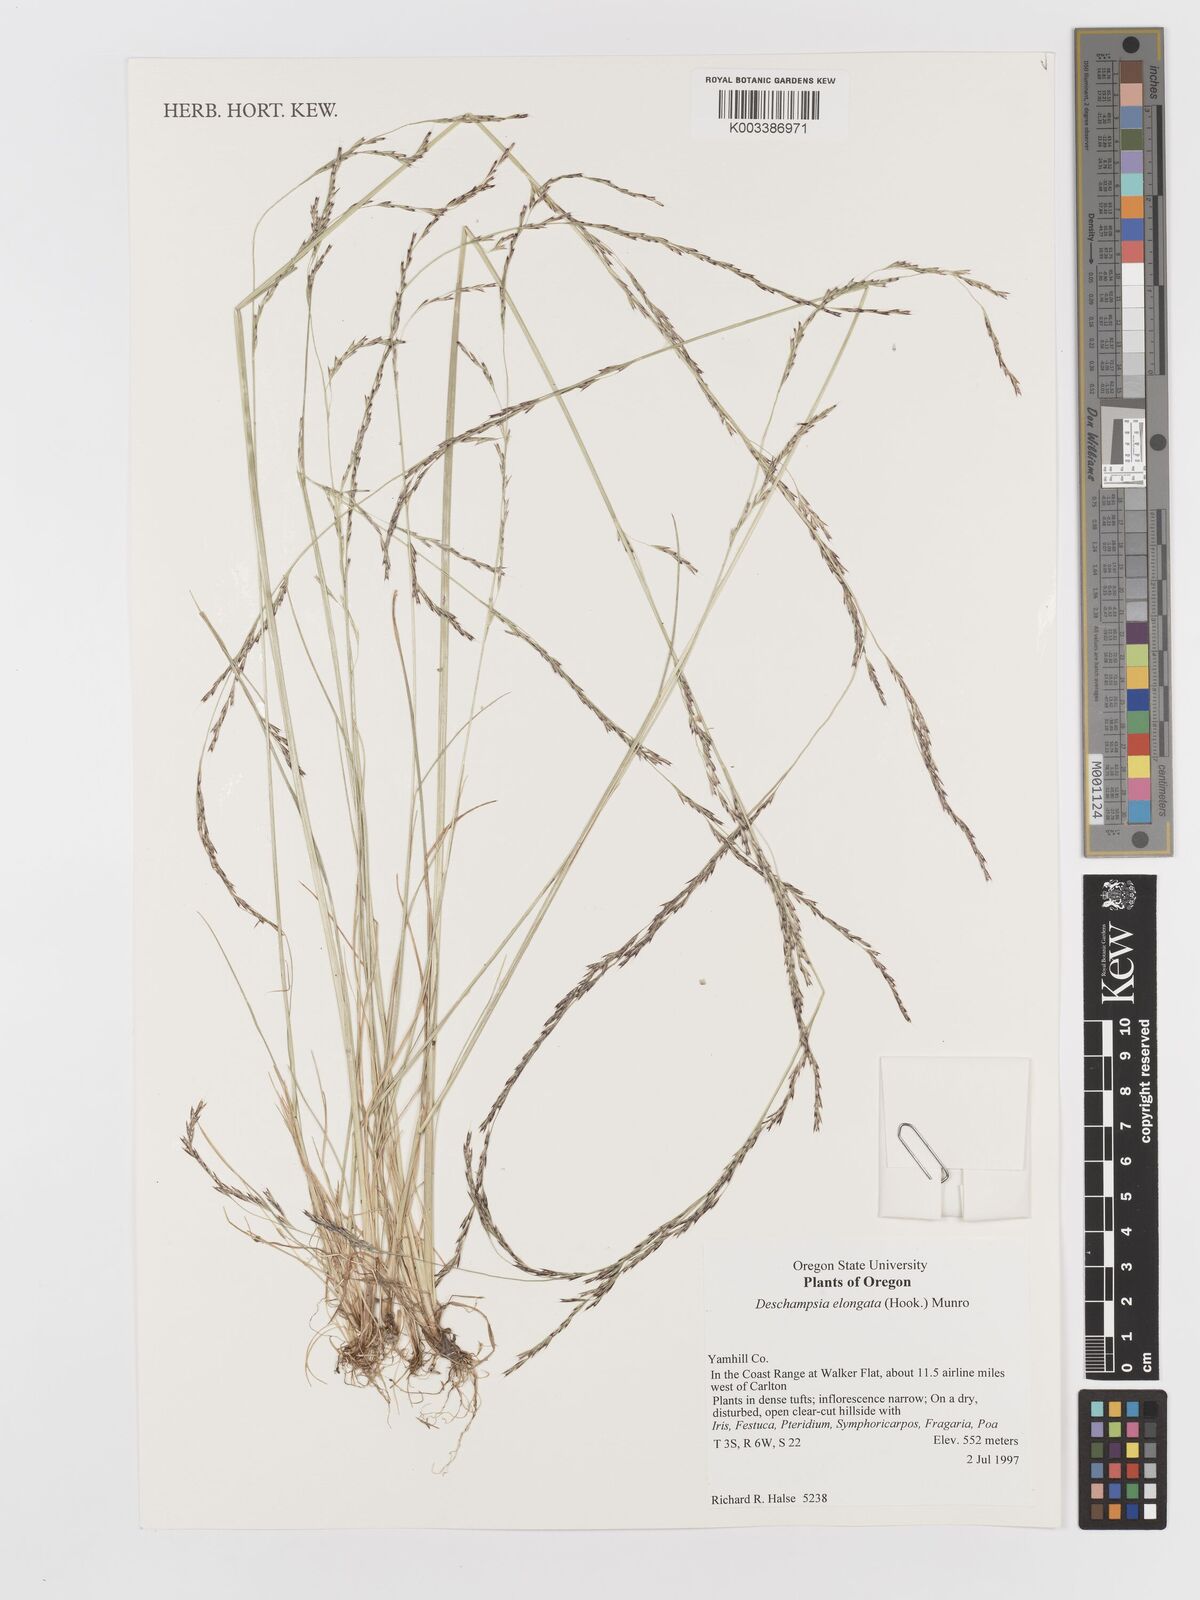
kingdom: Plantae
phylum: Tracheophyta
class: Liliopsida
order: Poales
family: Poaceae
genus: Deschampsia
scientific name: Deschampsia elongata
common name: Slender hairgrass
